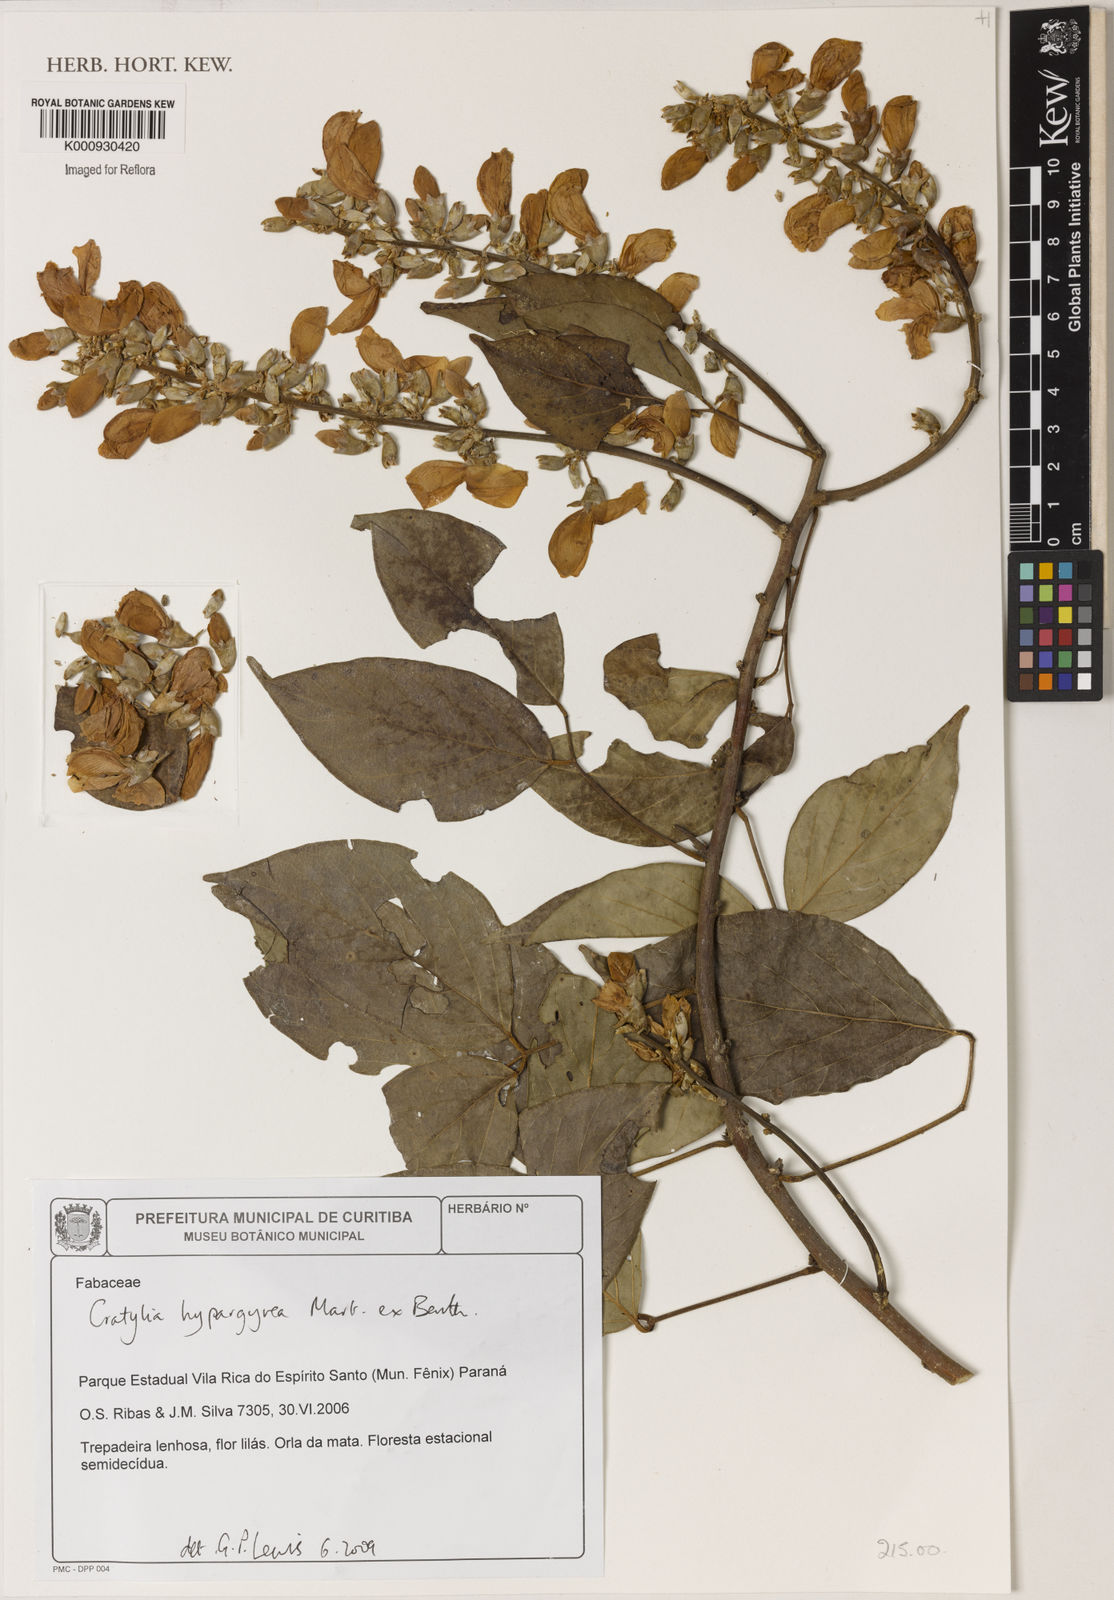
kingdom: Plantae
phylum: Tracheophyta
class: Magnoliopsida
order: Fabales
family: Fabaceae
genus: Cratylia
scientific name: Cratylia
